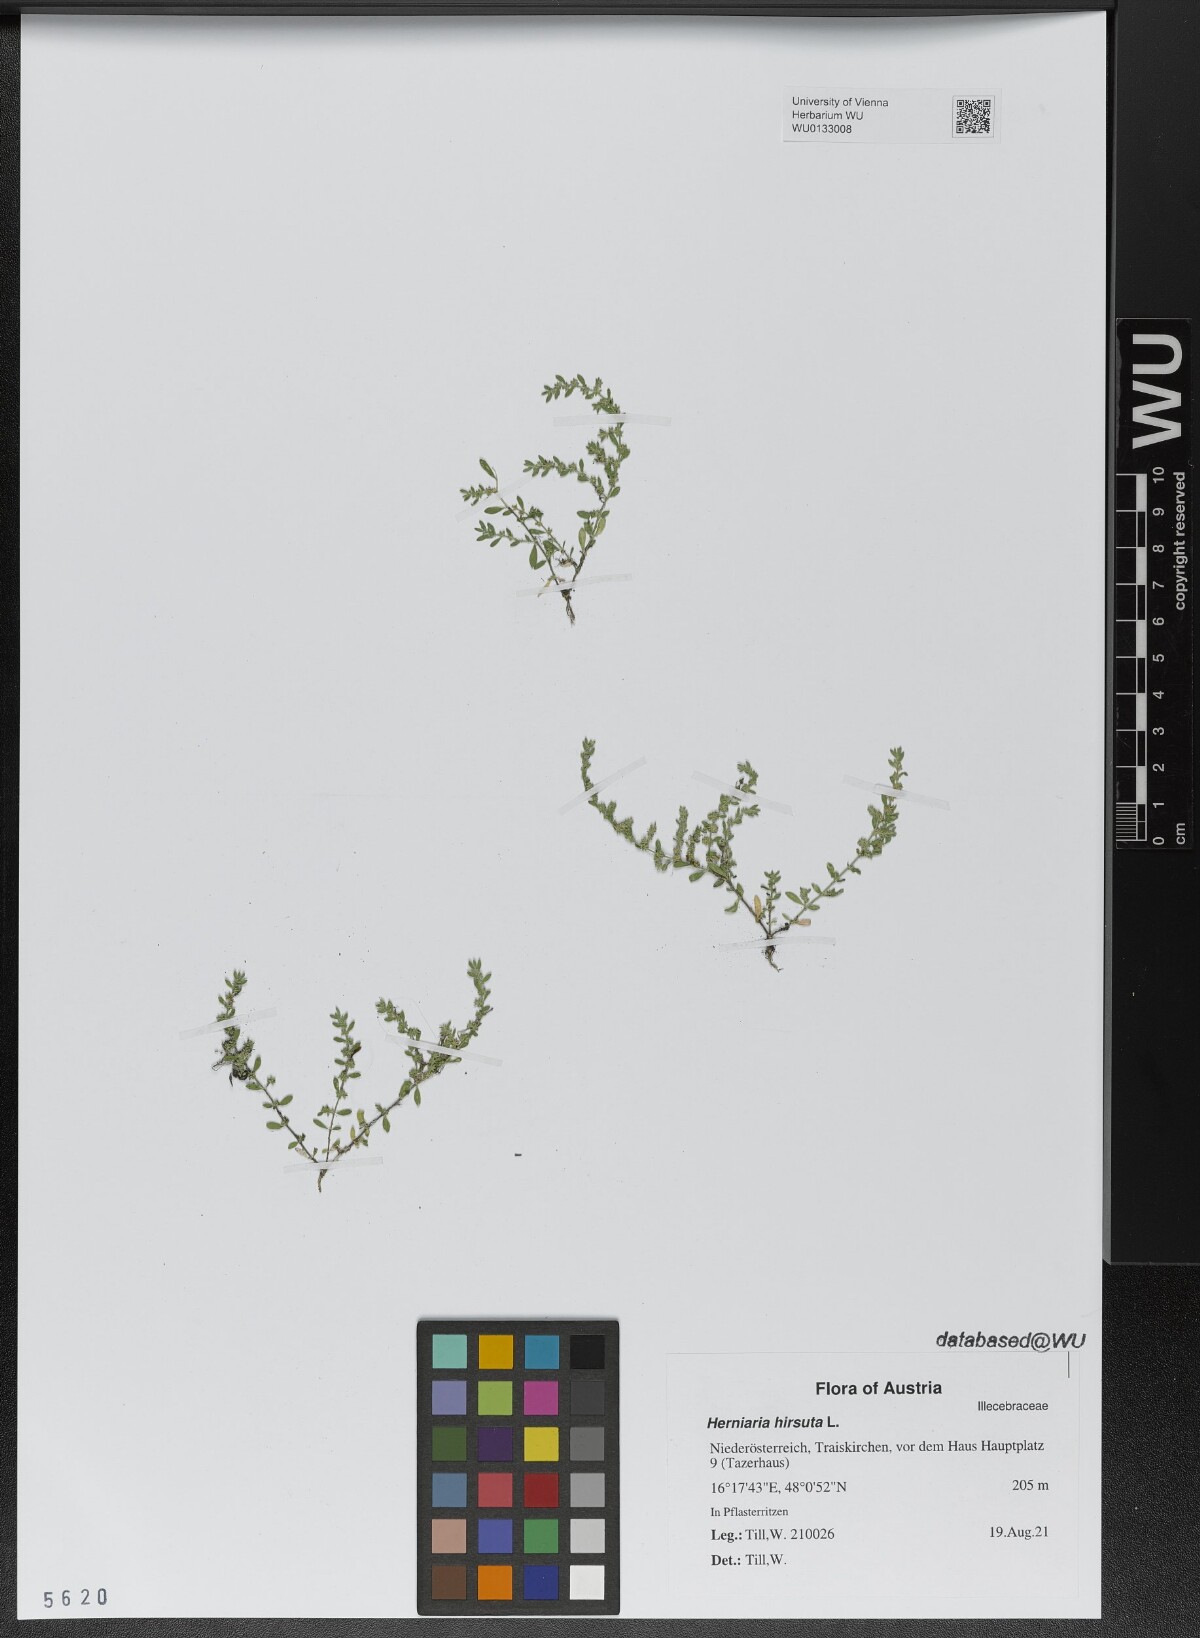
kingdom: Plantae
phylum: Tracheophyta
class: Magnoliopsida
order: Caryophyllales
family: Caryophyllaceae
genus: Herniaria
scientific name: Herniaria hirsuta
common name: Hairy rupturewort
